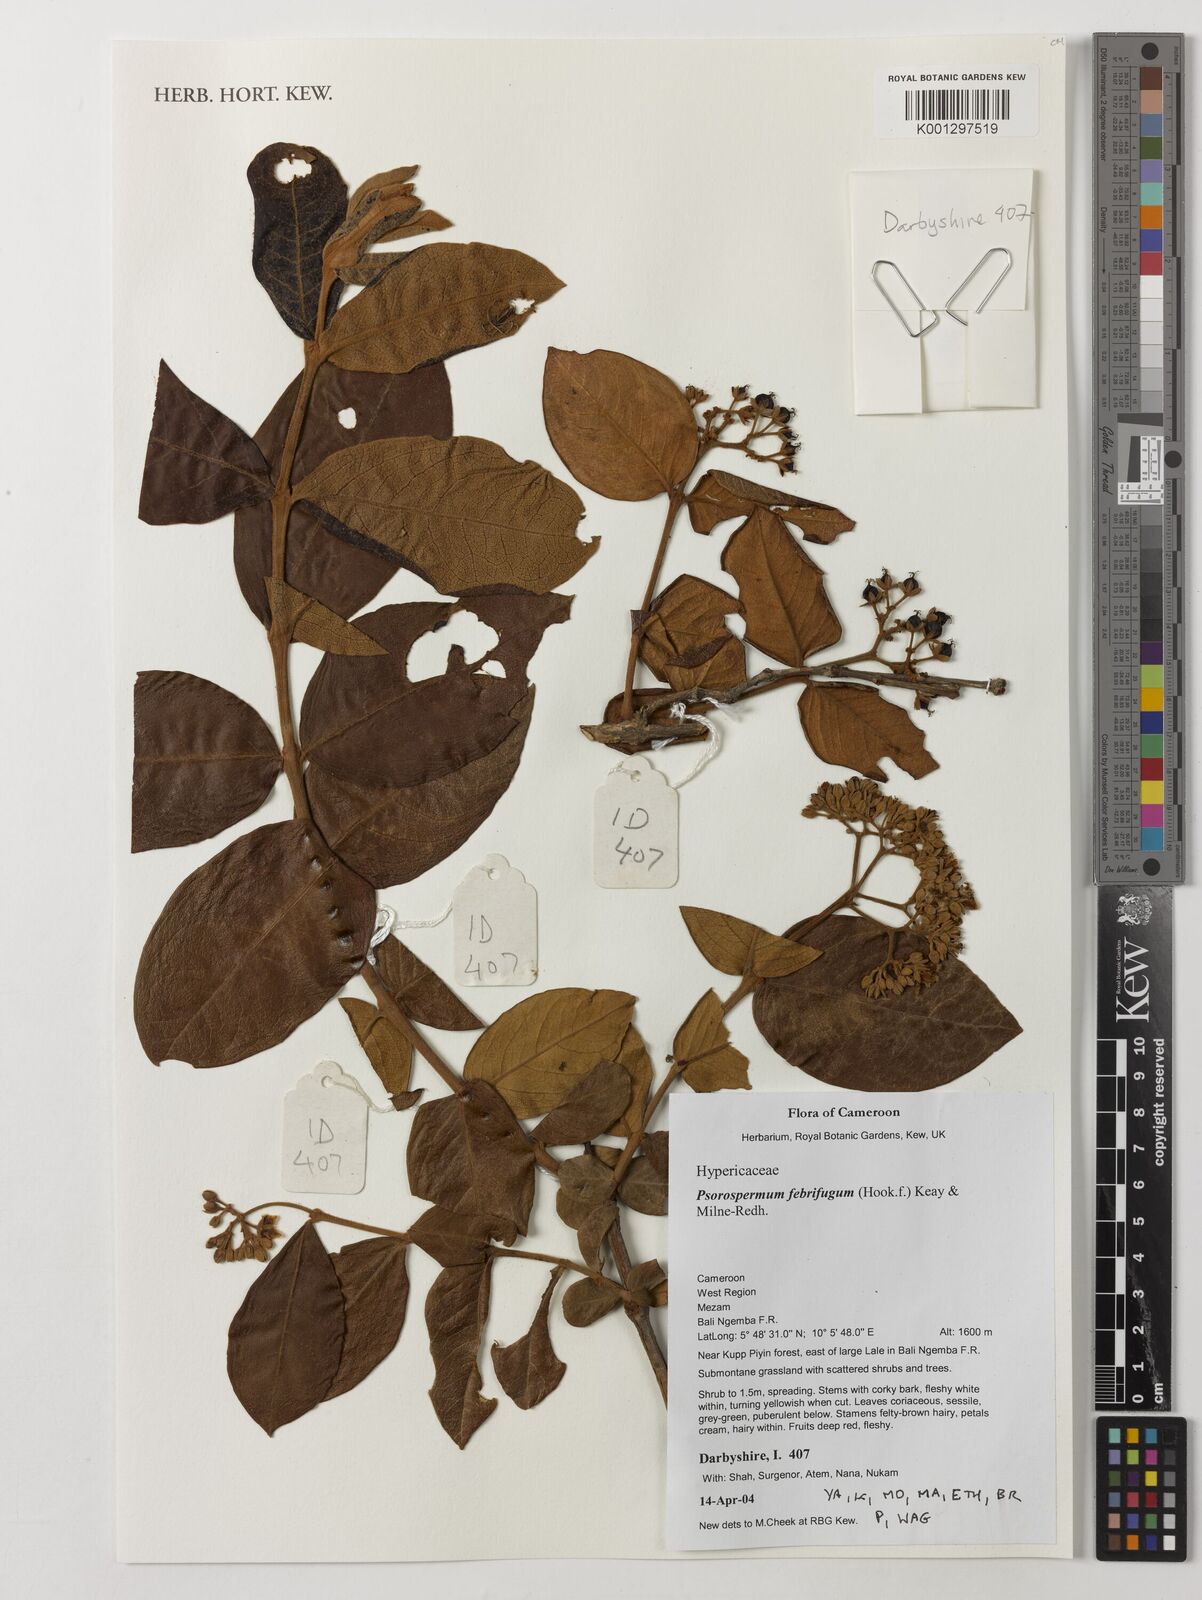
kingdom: Plantae
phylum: Tracheophyta
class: Magnoliopsida
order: Malpighiales
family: Hypericaceae
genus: Psorospermum
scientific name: Psorospermum febrifugum
